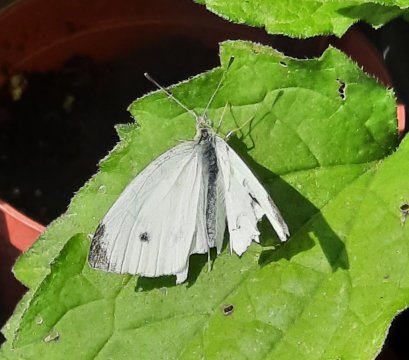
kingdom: Animalia
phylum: Arthropoda
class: Insecta
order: Lepidoptera
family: Pieridae
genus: Pieris
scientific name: Pieris rapae
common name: Cabbage White
